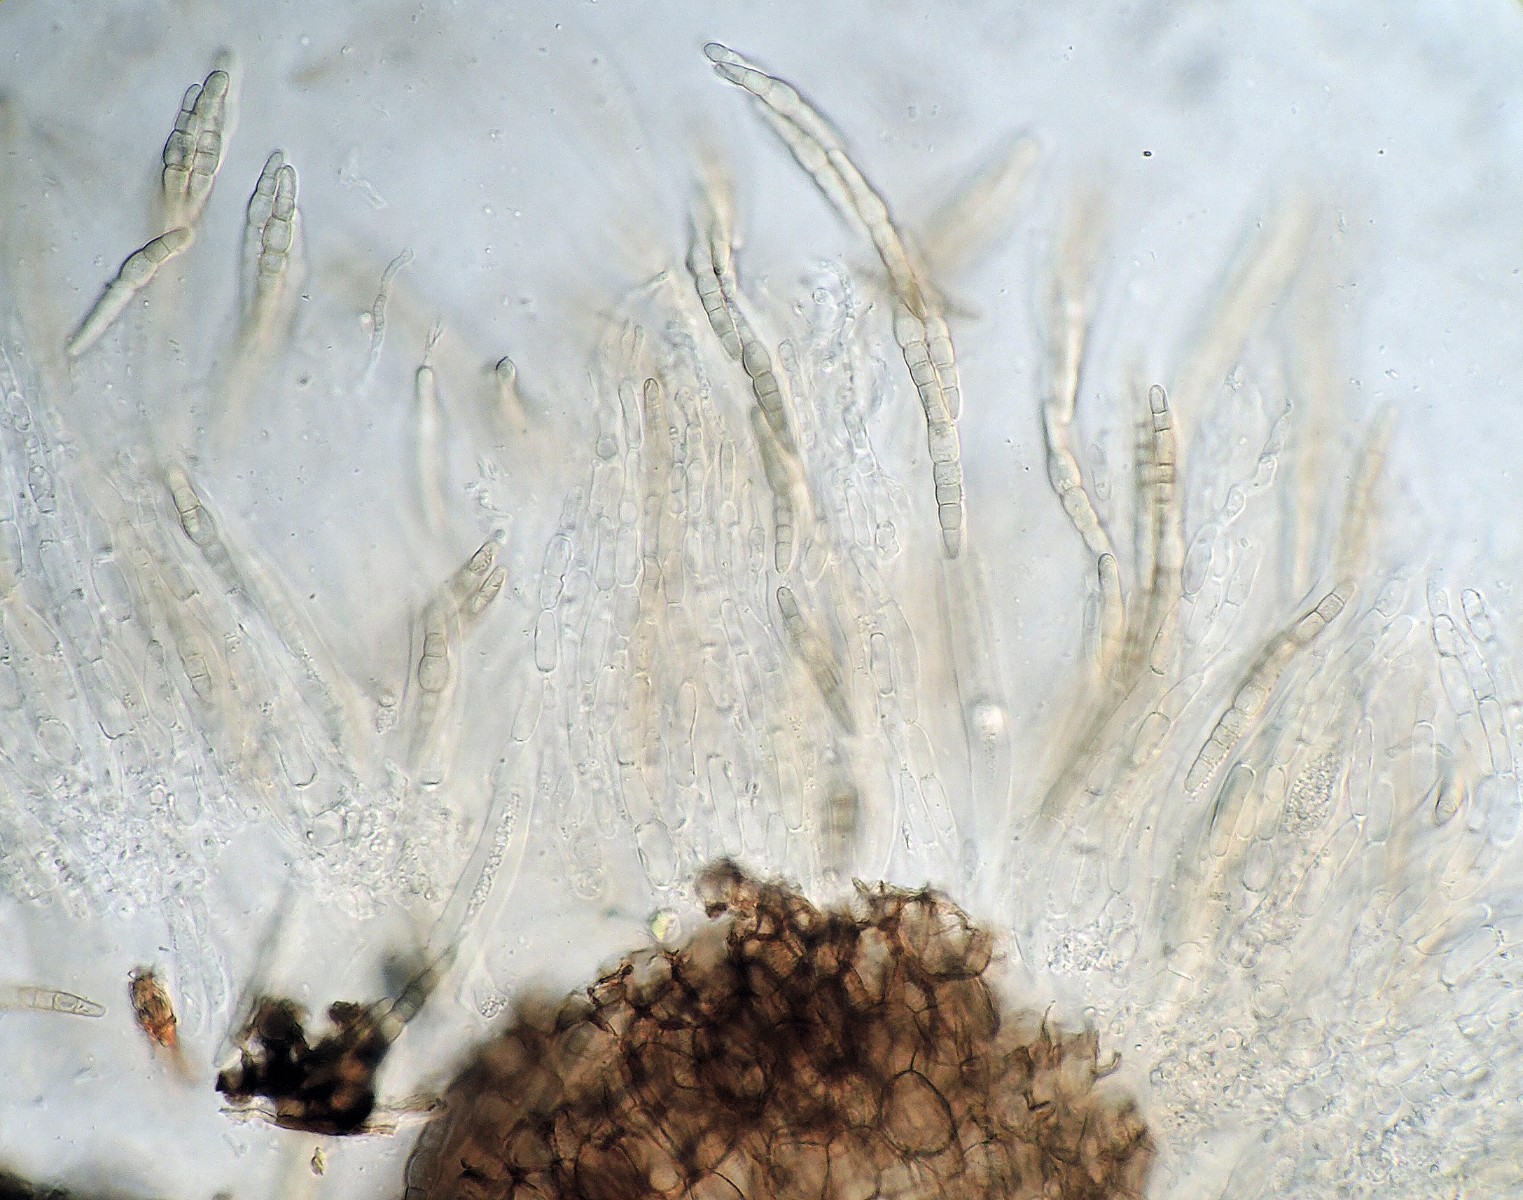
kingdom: Fungi
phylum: Ascomycota
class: Dothideomycetes
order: Pleosporales
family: Leptosphaeriaceae
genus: Plenodomus
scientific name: Plenodomus agnitus
